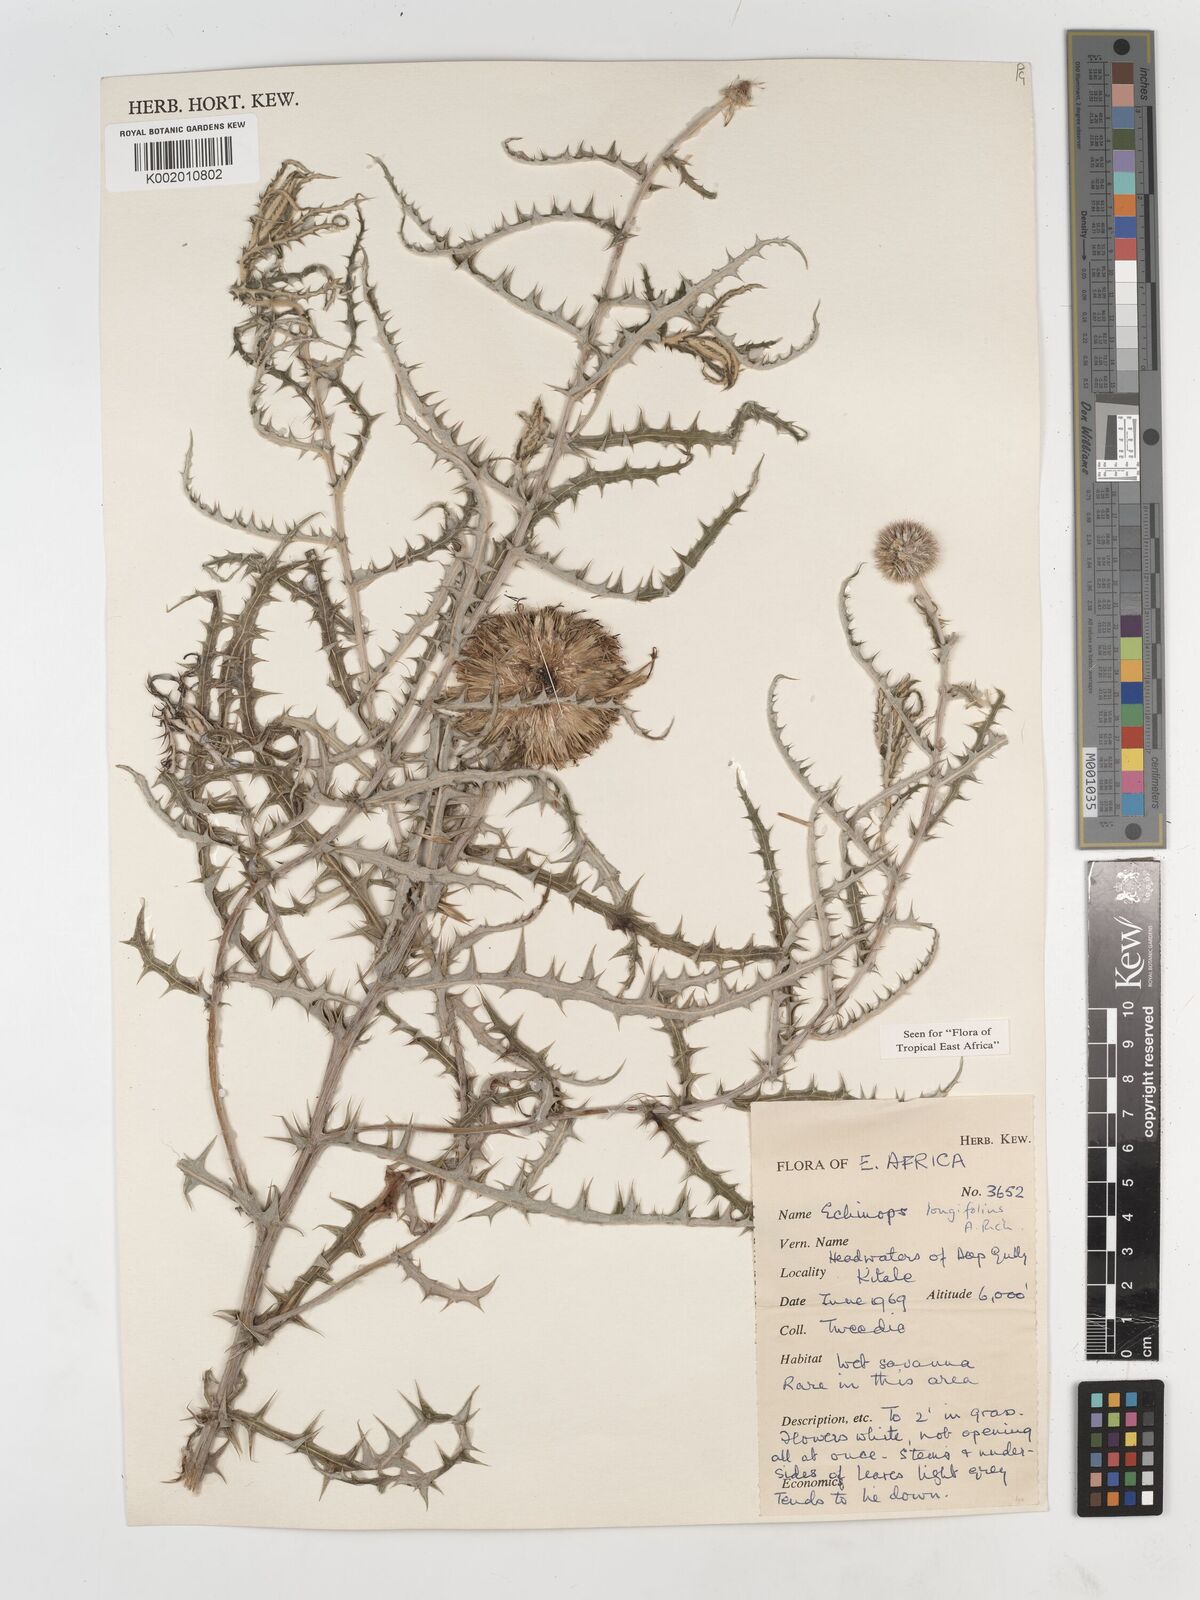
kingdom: Plantae
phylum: Tracheophyta
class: Magnoliopsida
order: Asterales
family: Asteraceae
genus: Echinops
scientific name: Echinops longifolius
